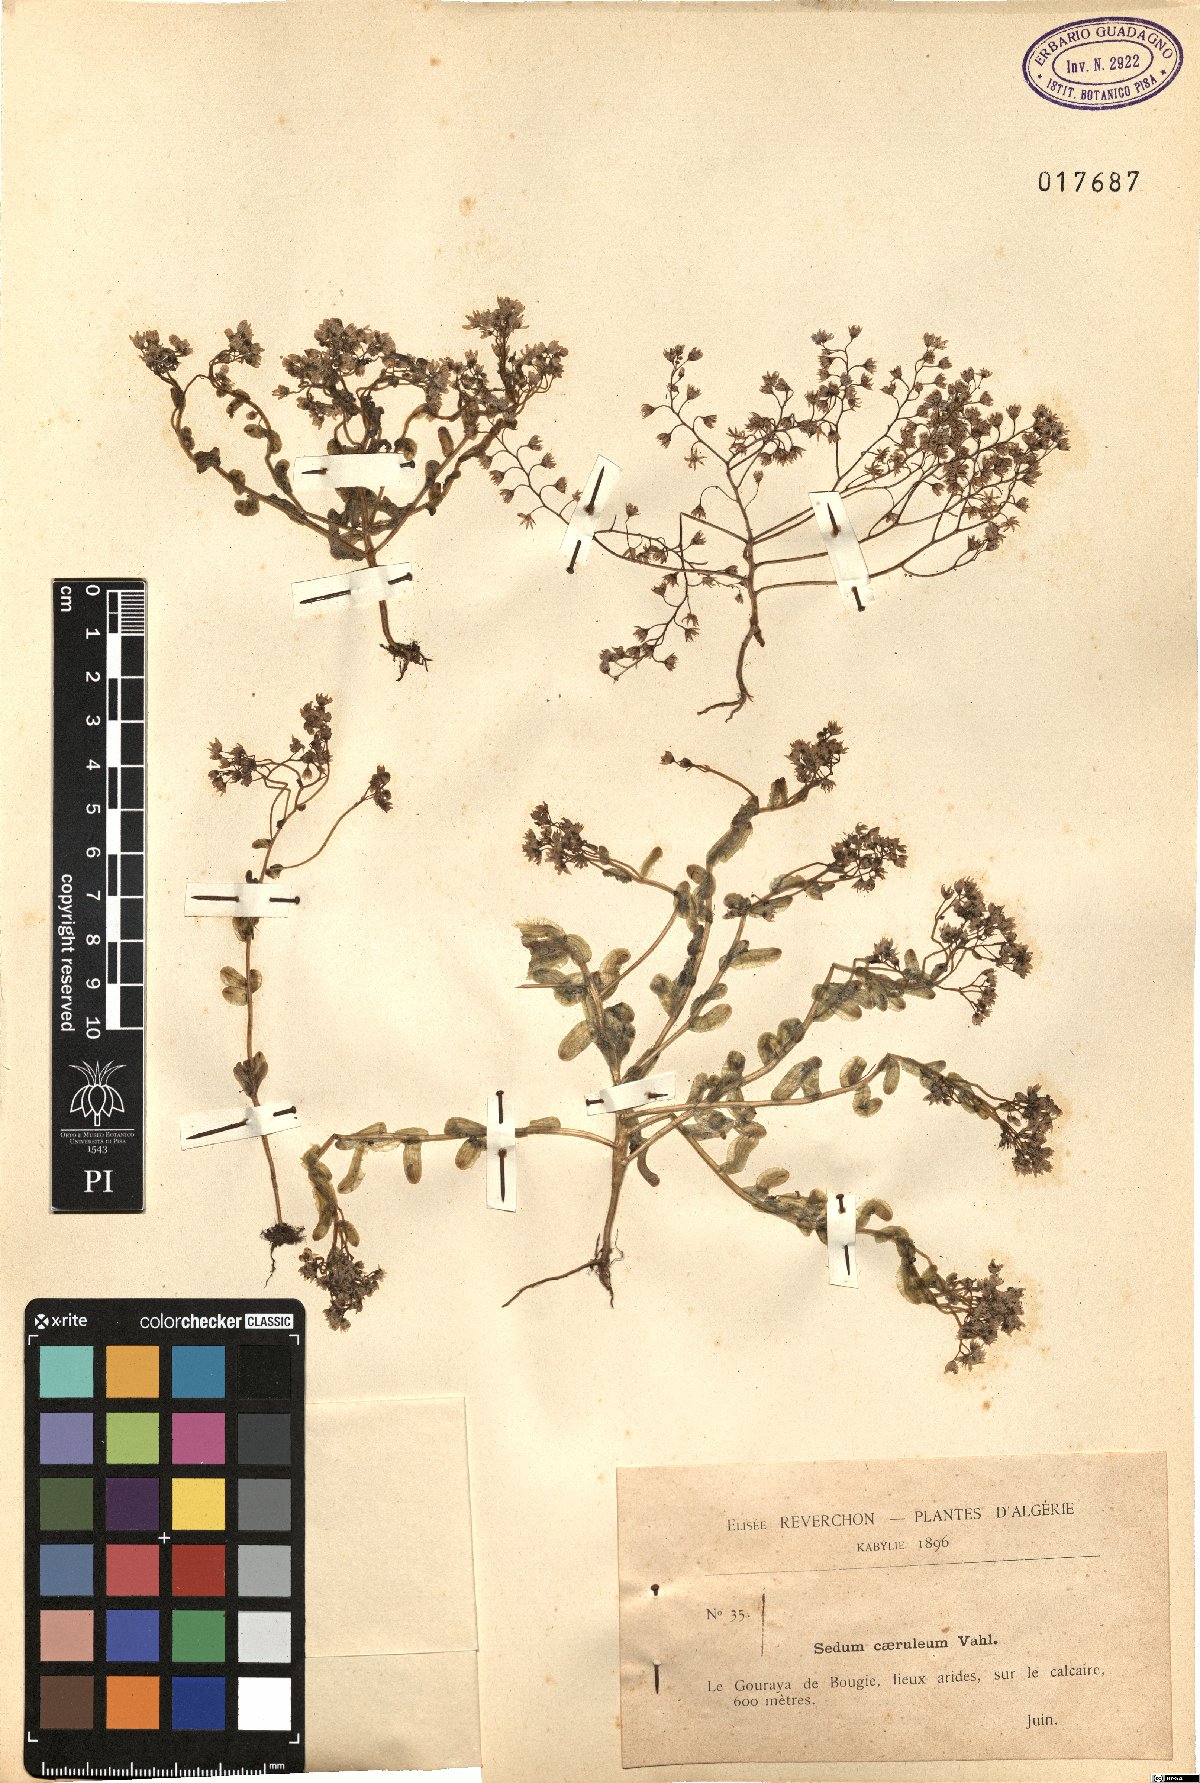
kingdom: Plantae
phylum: Tracheophyta
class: Magnoliopsida
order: Saxifragales
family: Crassulaceae
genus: Sedum
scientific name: Sedum caeruleum
